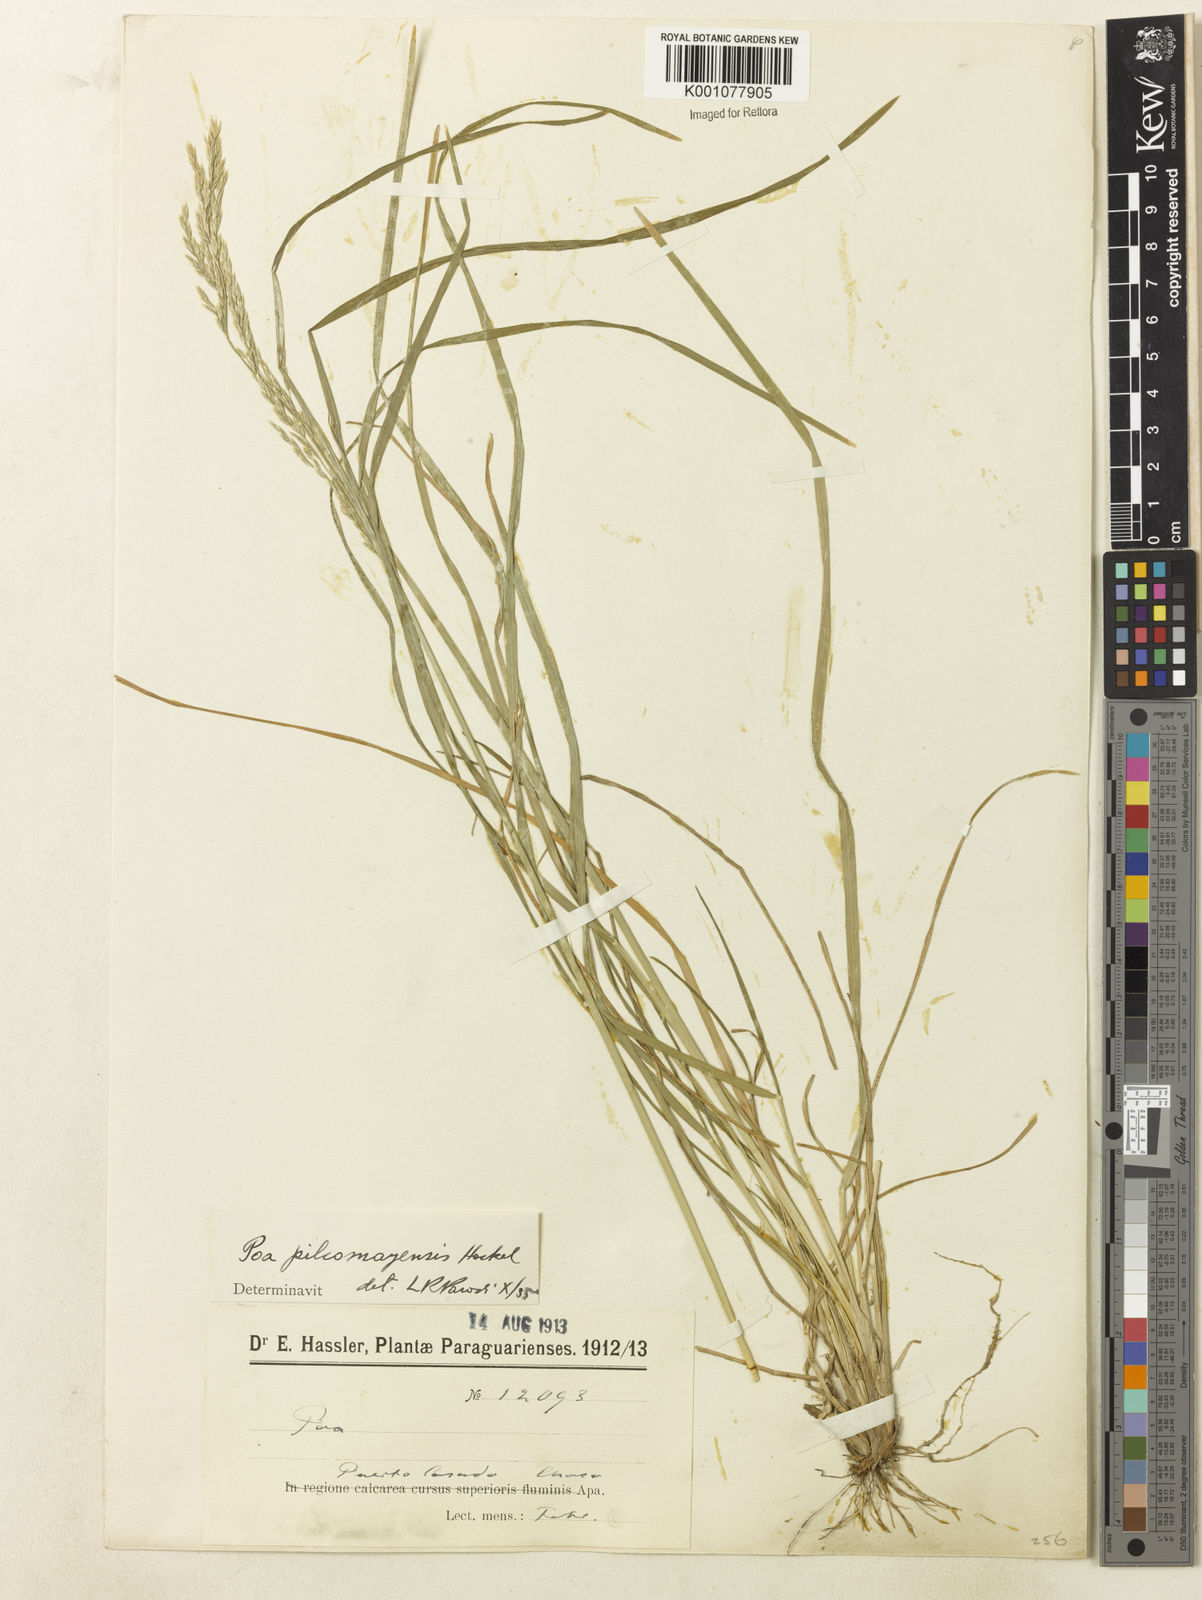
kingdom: Plantae
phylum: Tracheophyta
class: Liliopsida
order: Poales
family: Poaceae
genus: Poa
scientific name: Poa pilcomayensis
